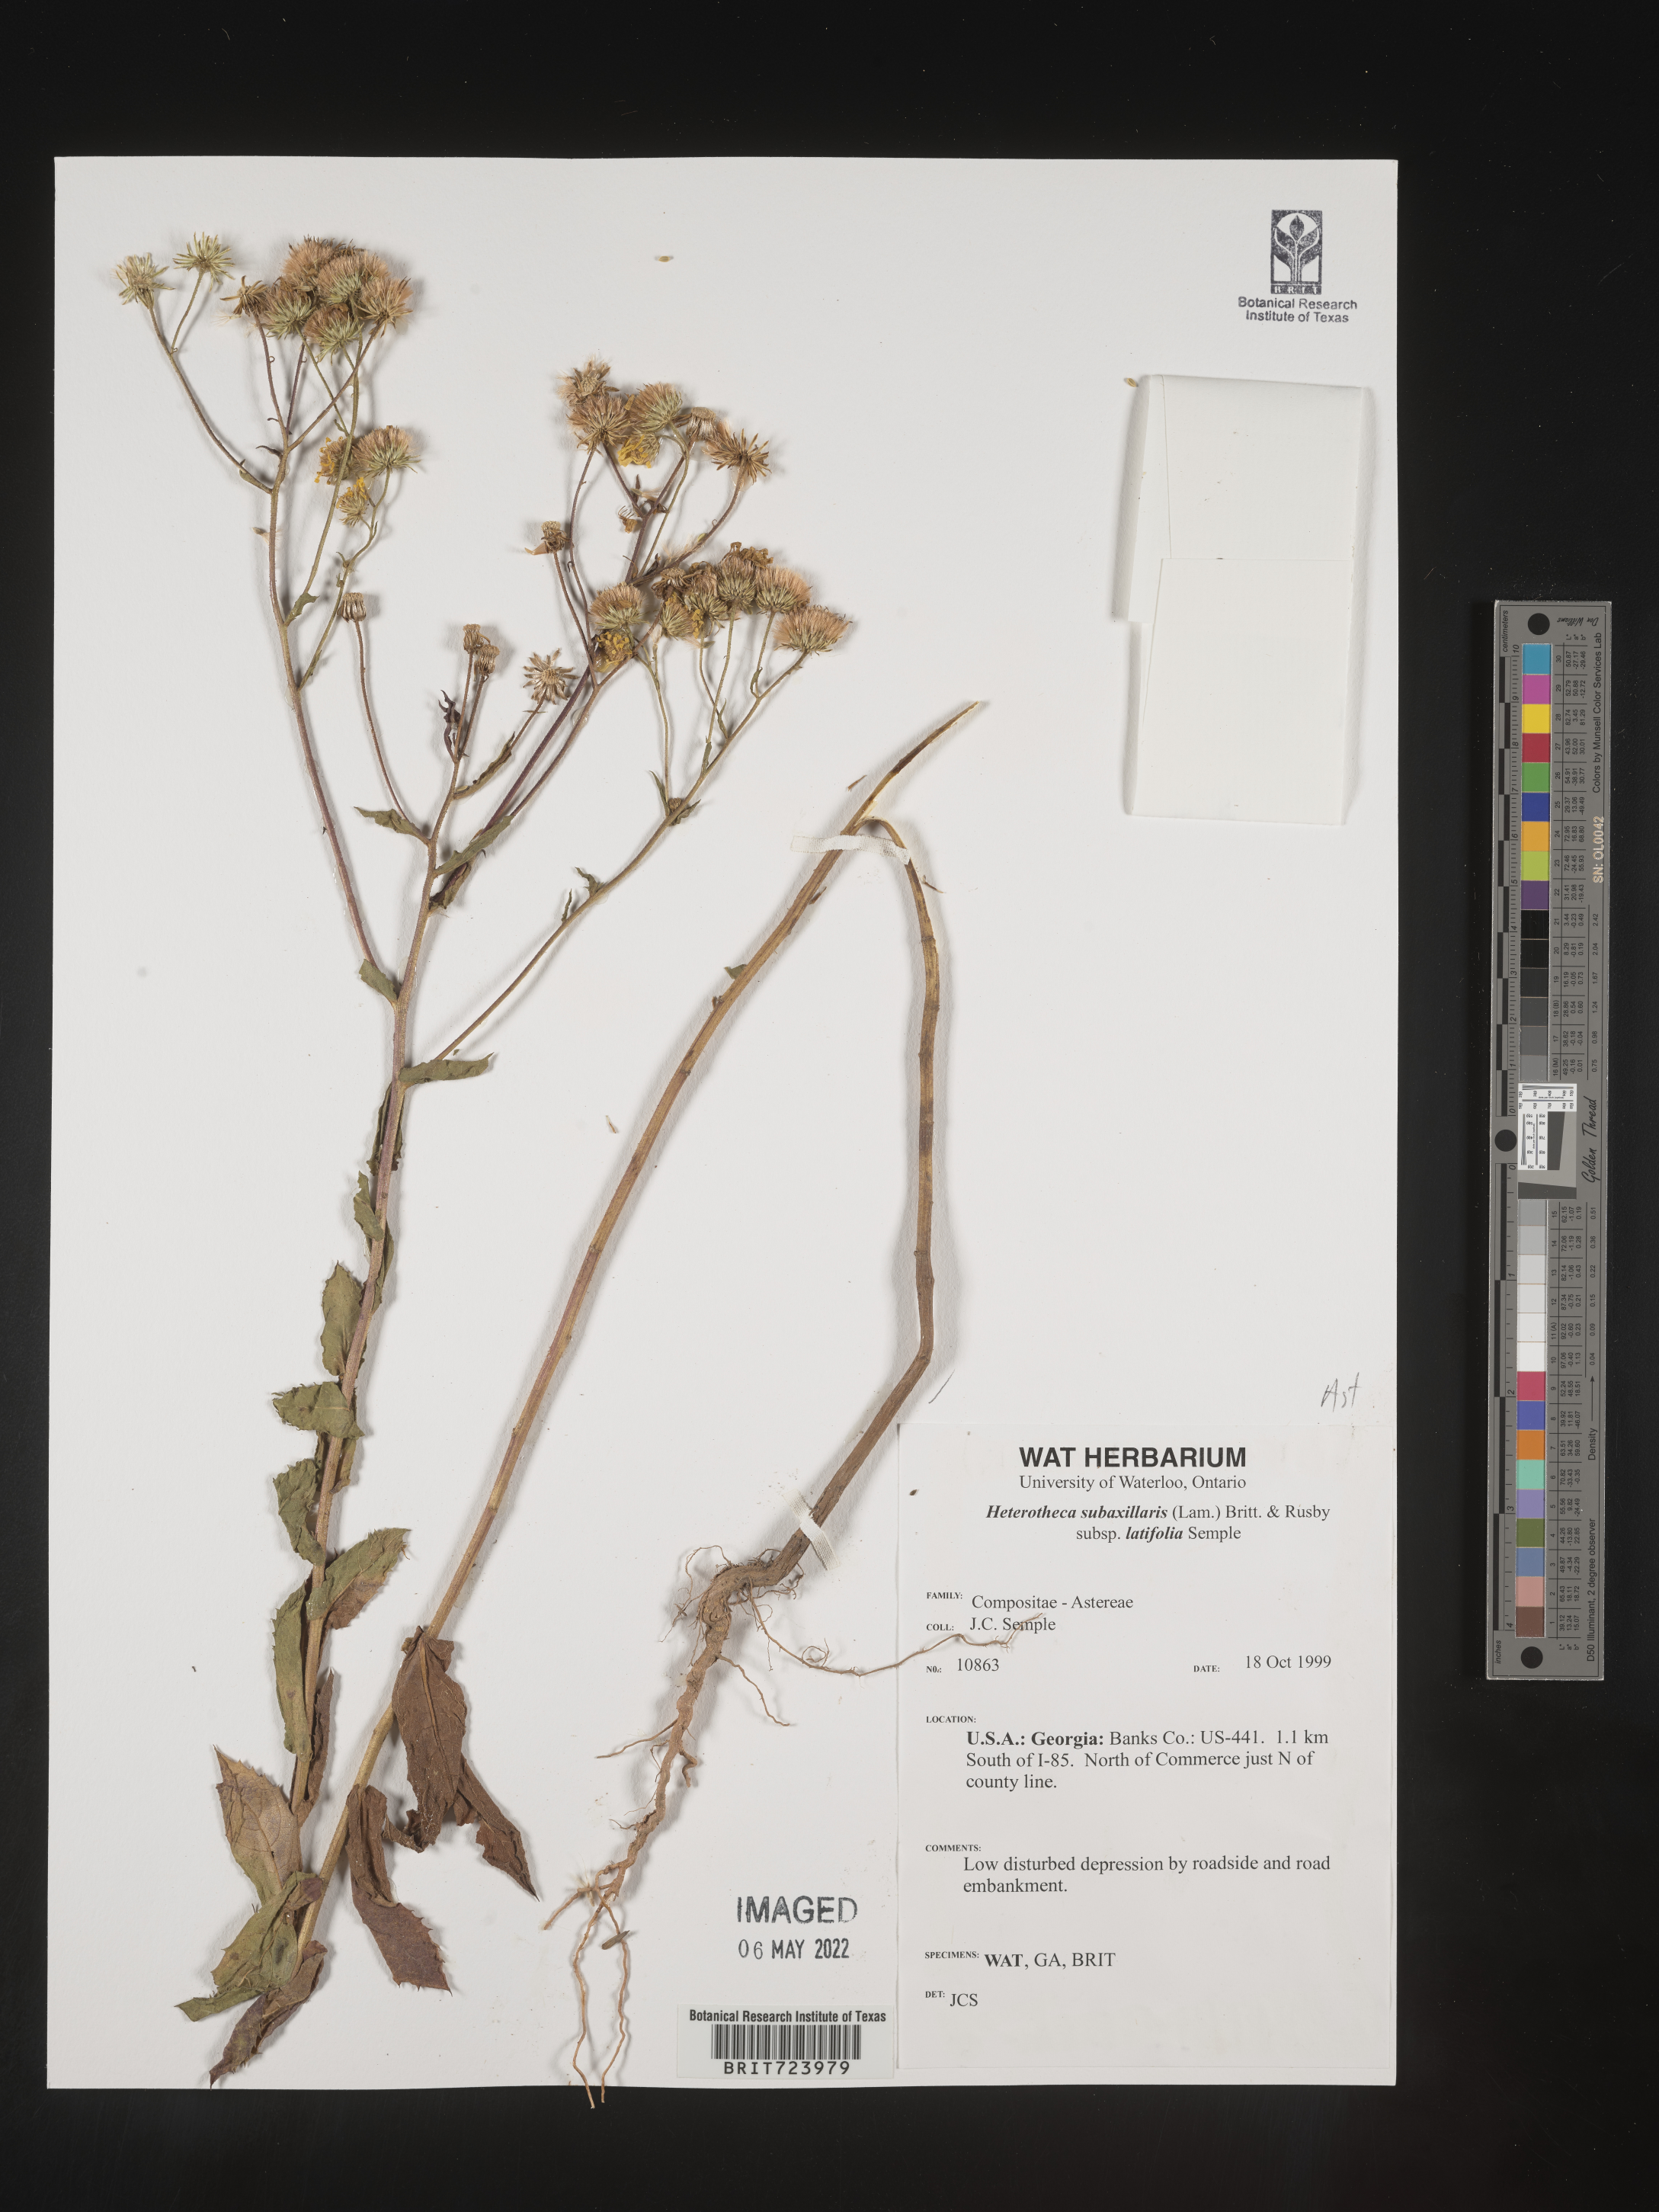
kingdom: Plantae
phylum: Tracheophyta
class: Magnoliopsida
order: Asterales
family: Asteraceae
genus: Heterotheca
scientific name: Heterotheca subaxillaris
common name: Camphorweed
